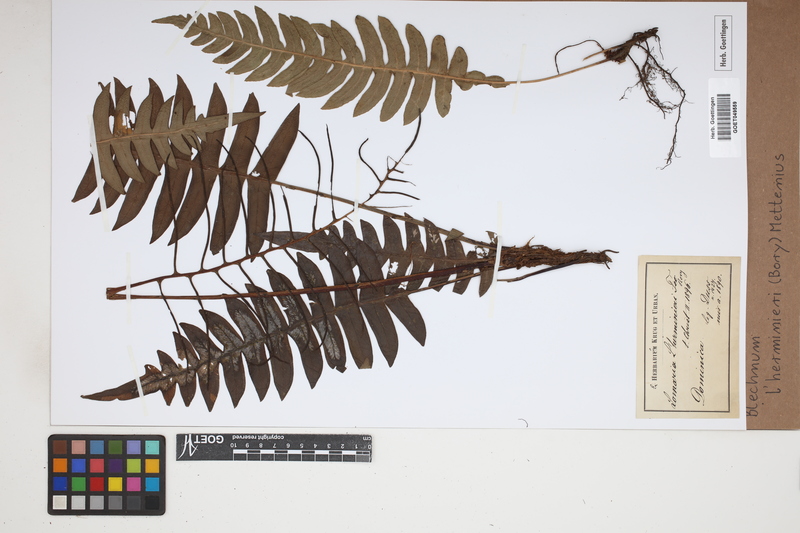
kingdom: Plantae
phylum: Tracheophyta
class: Polypodiopsida
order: Polypodiales
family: Blechnaceae
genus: Austroblechnum
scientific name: Austroblechnum lherminieri
